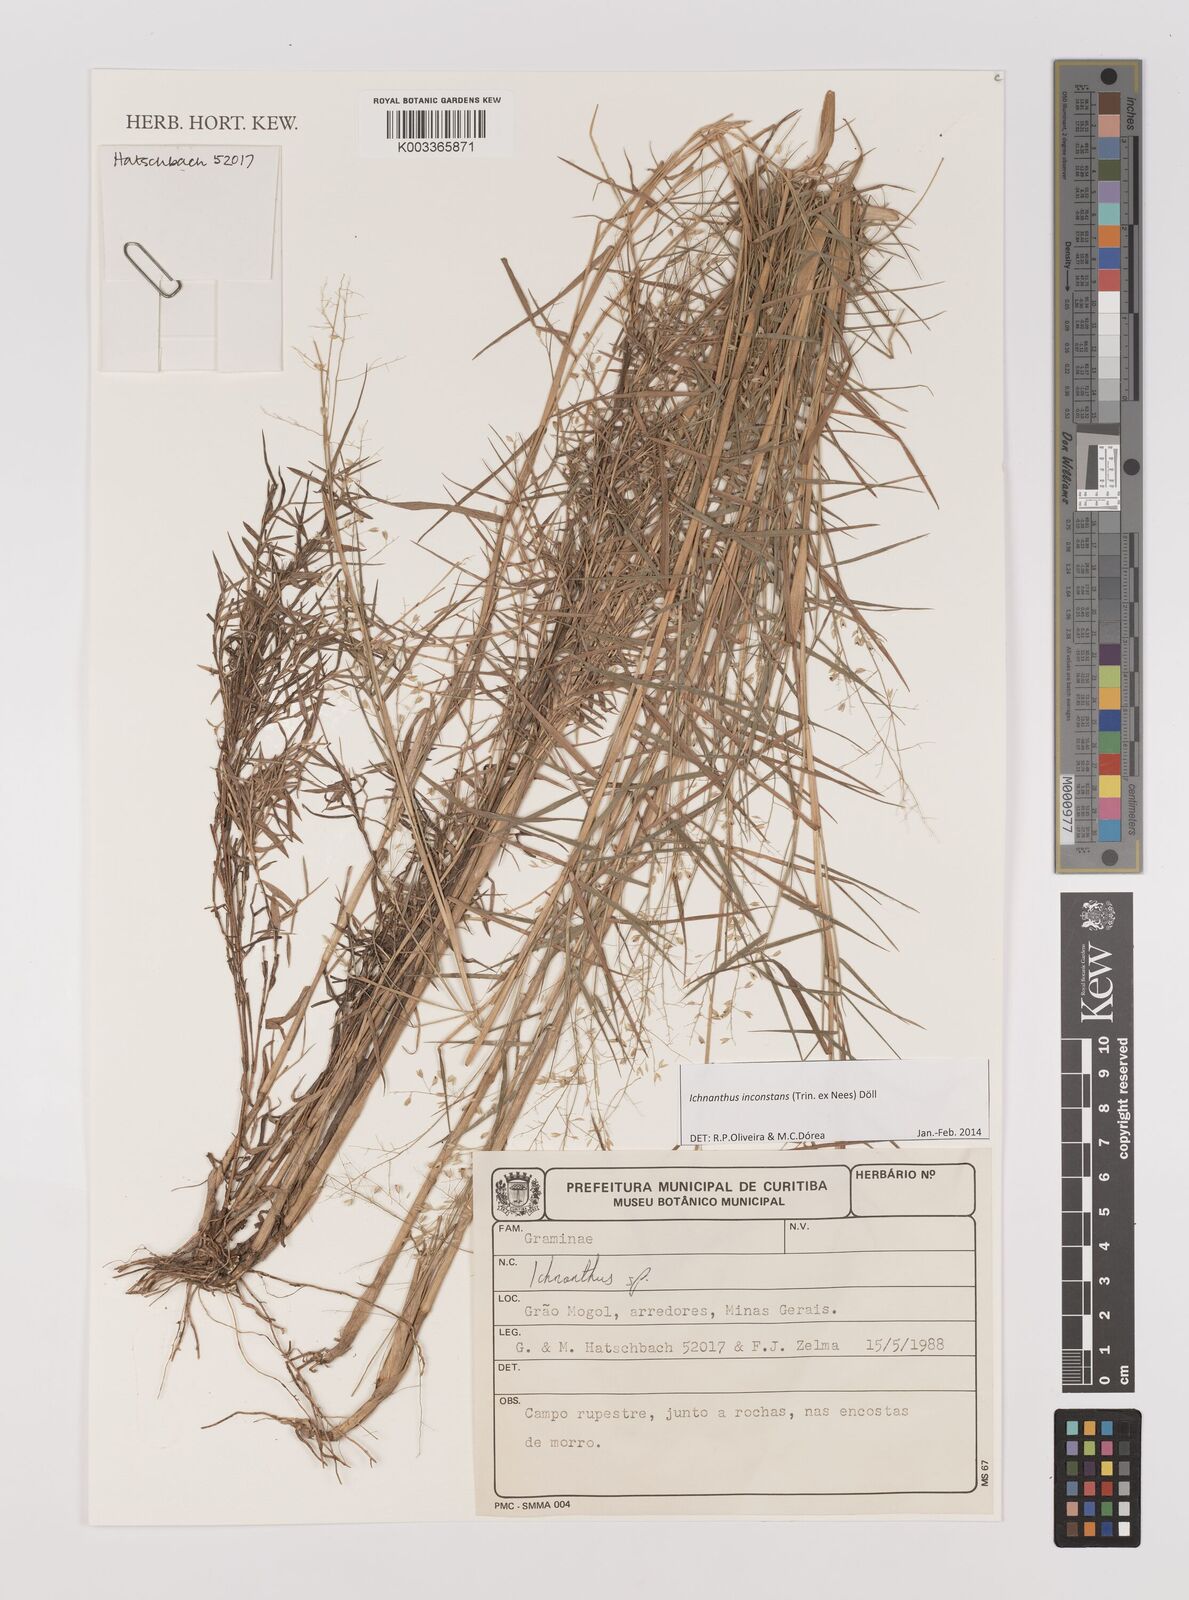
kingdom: Plantae
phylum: Tracheophyta
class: Liliopsida
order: Poales
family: Poaceae
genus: Ichnanthus
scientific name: Ichnanthus inconstans
